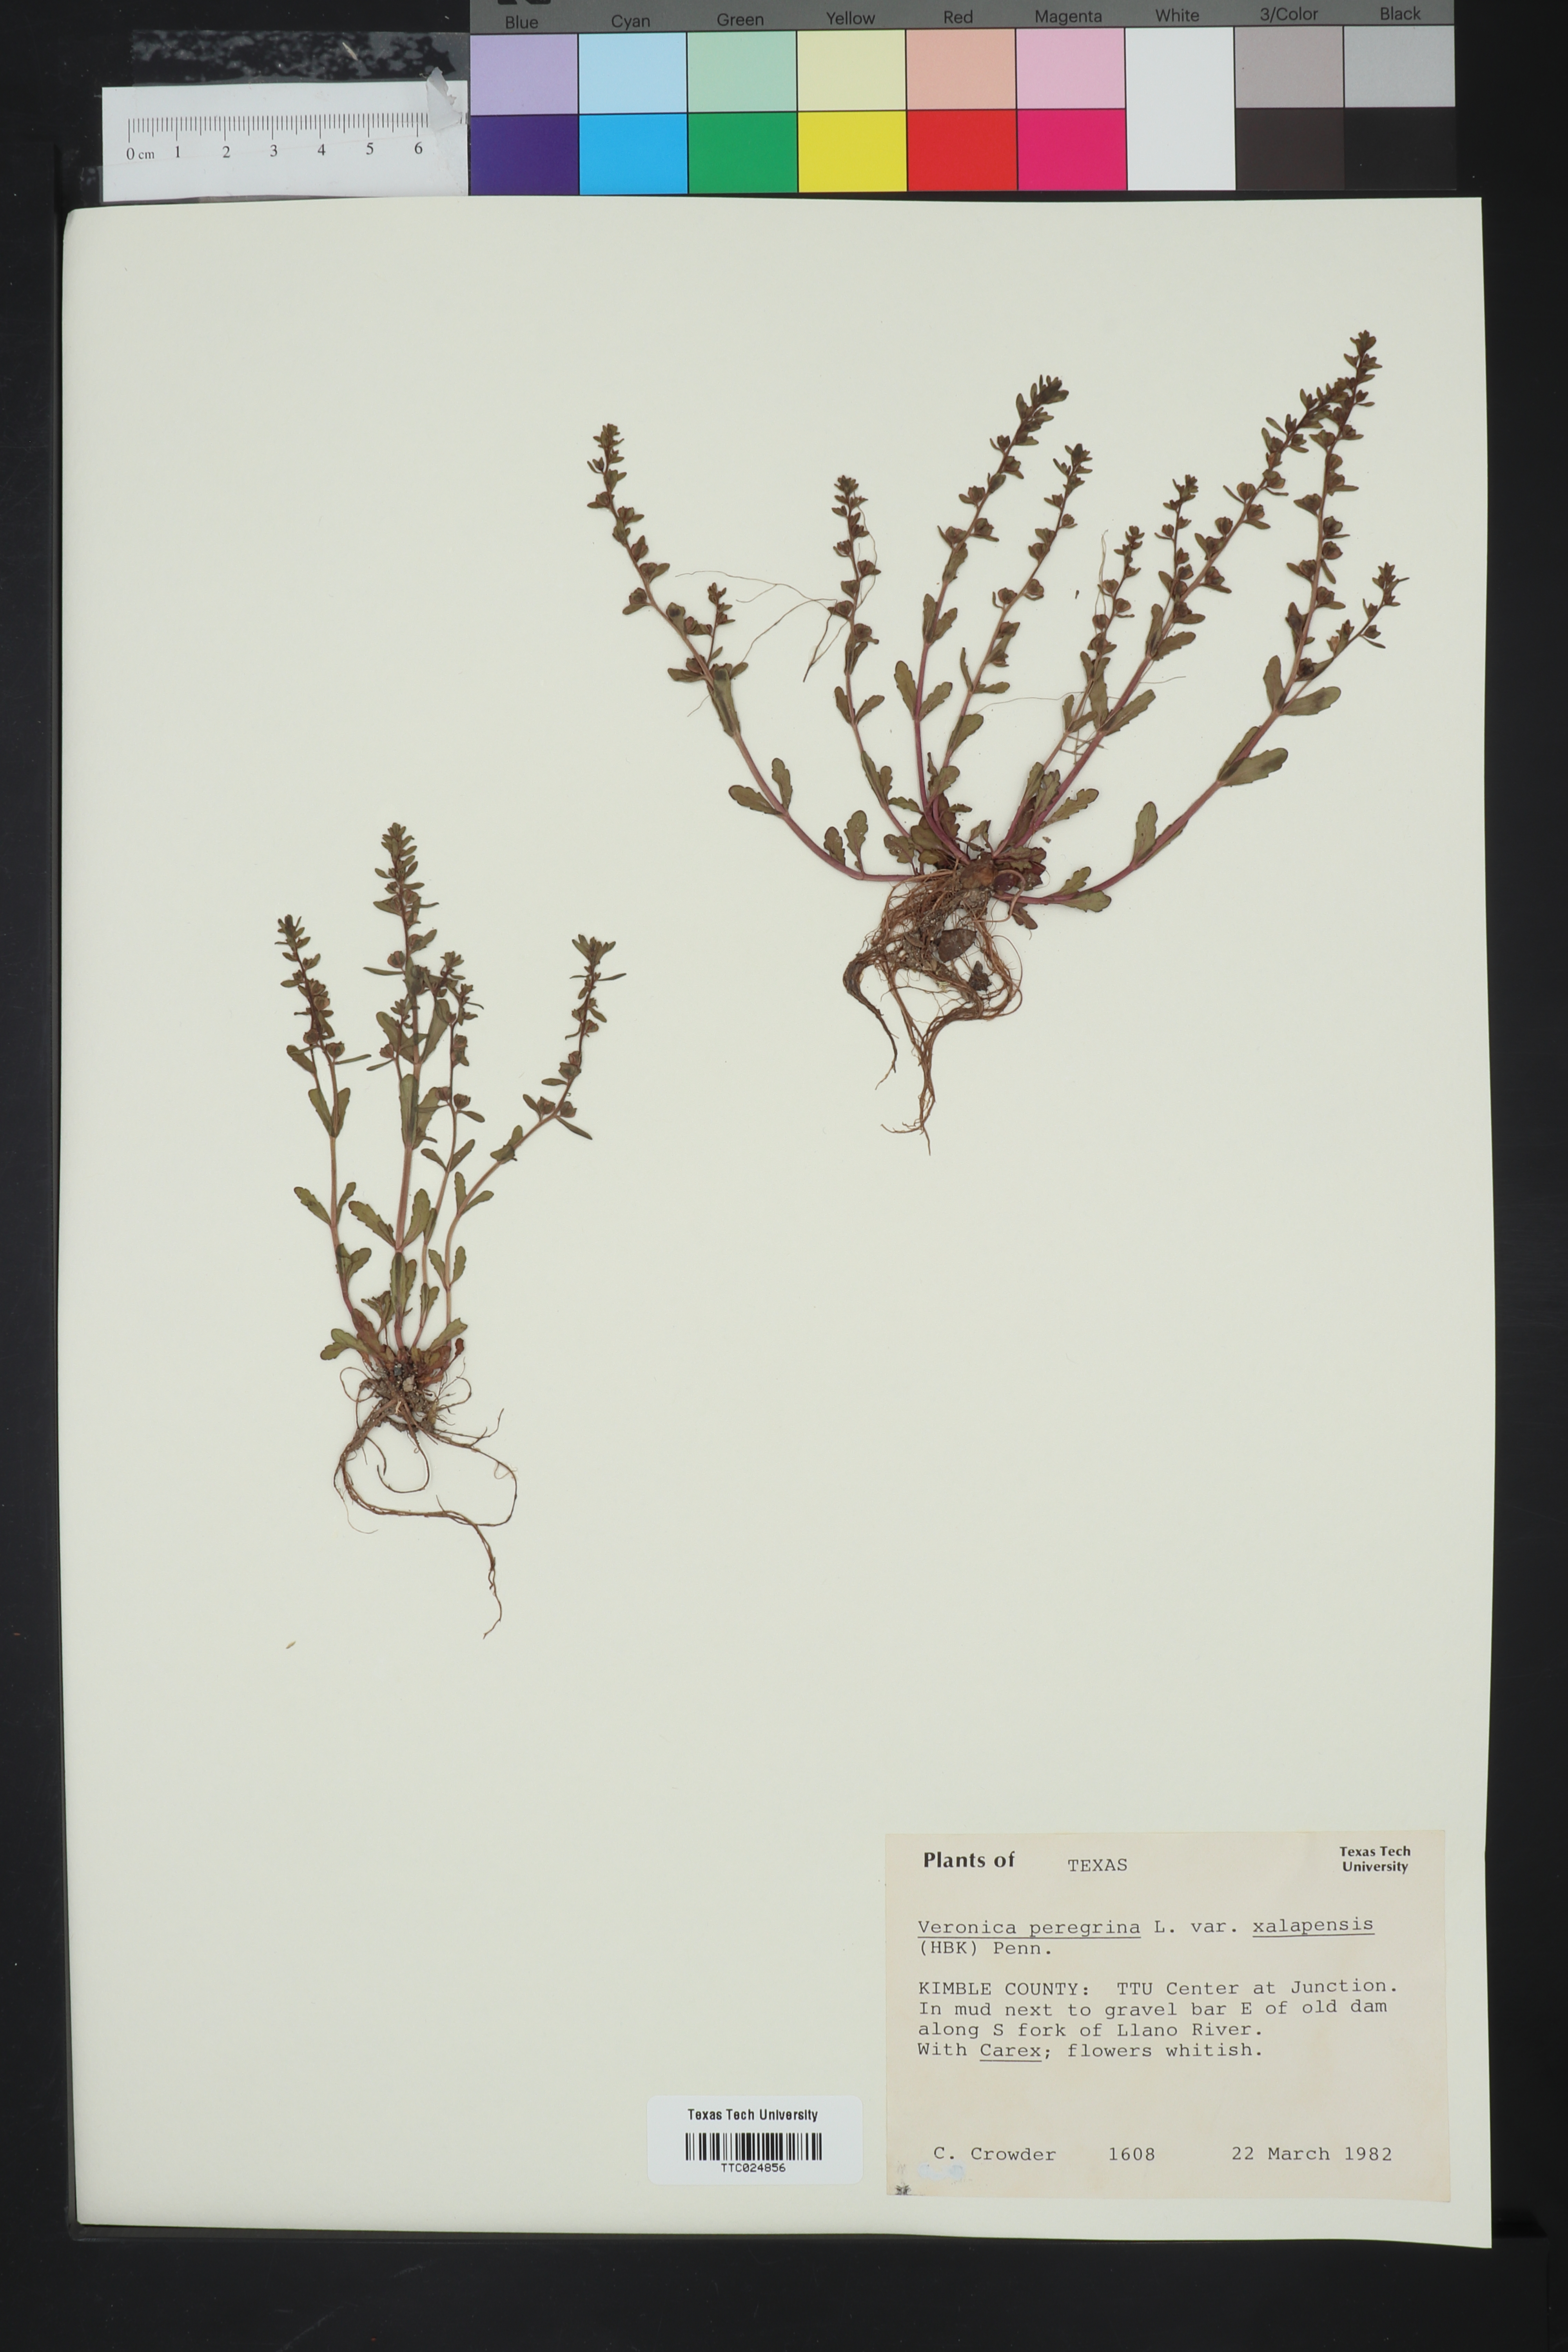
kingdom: Plantae
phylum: Tracheophyta
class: Magnoliopsida
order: Lamiales
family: Plantaginaceae
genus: Veronica
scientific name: Veronica peregrina
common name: Neckweed
